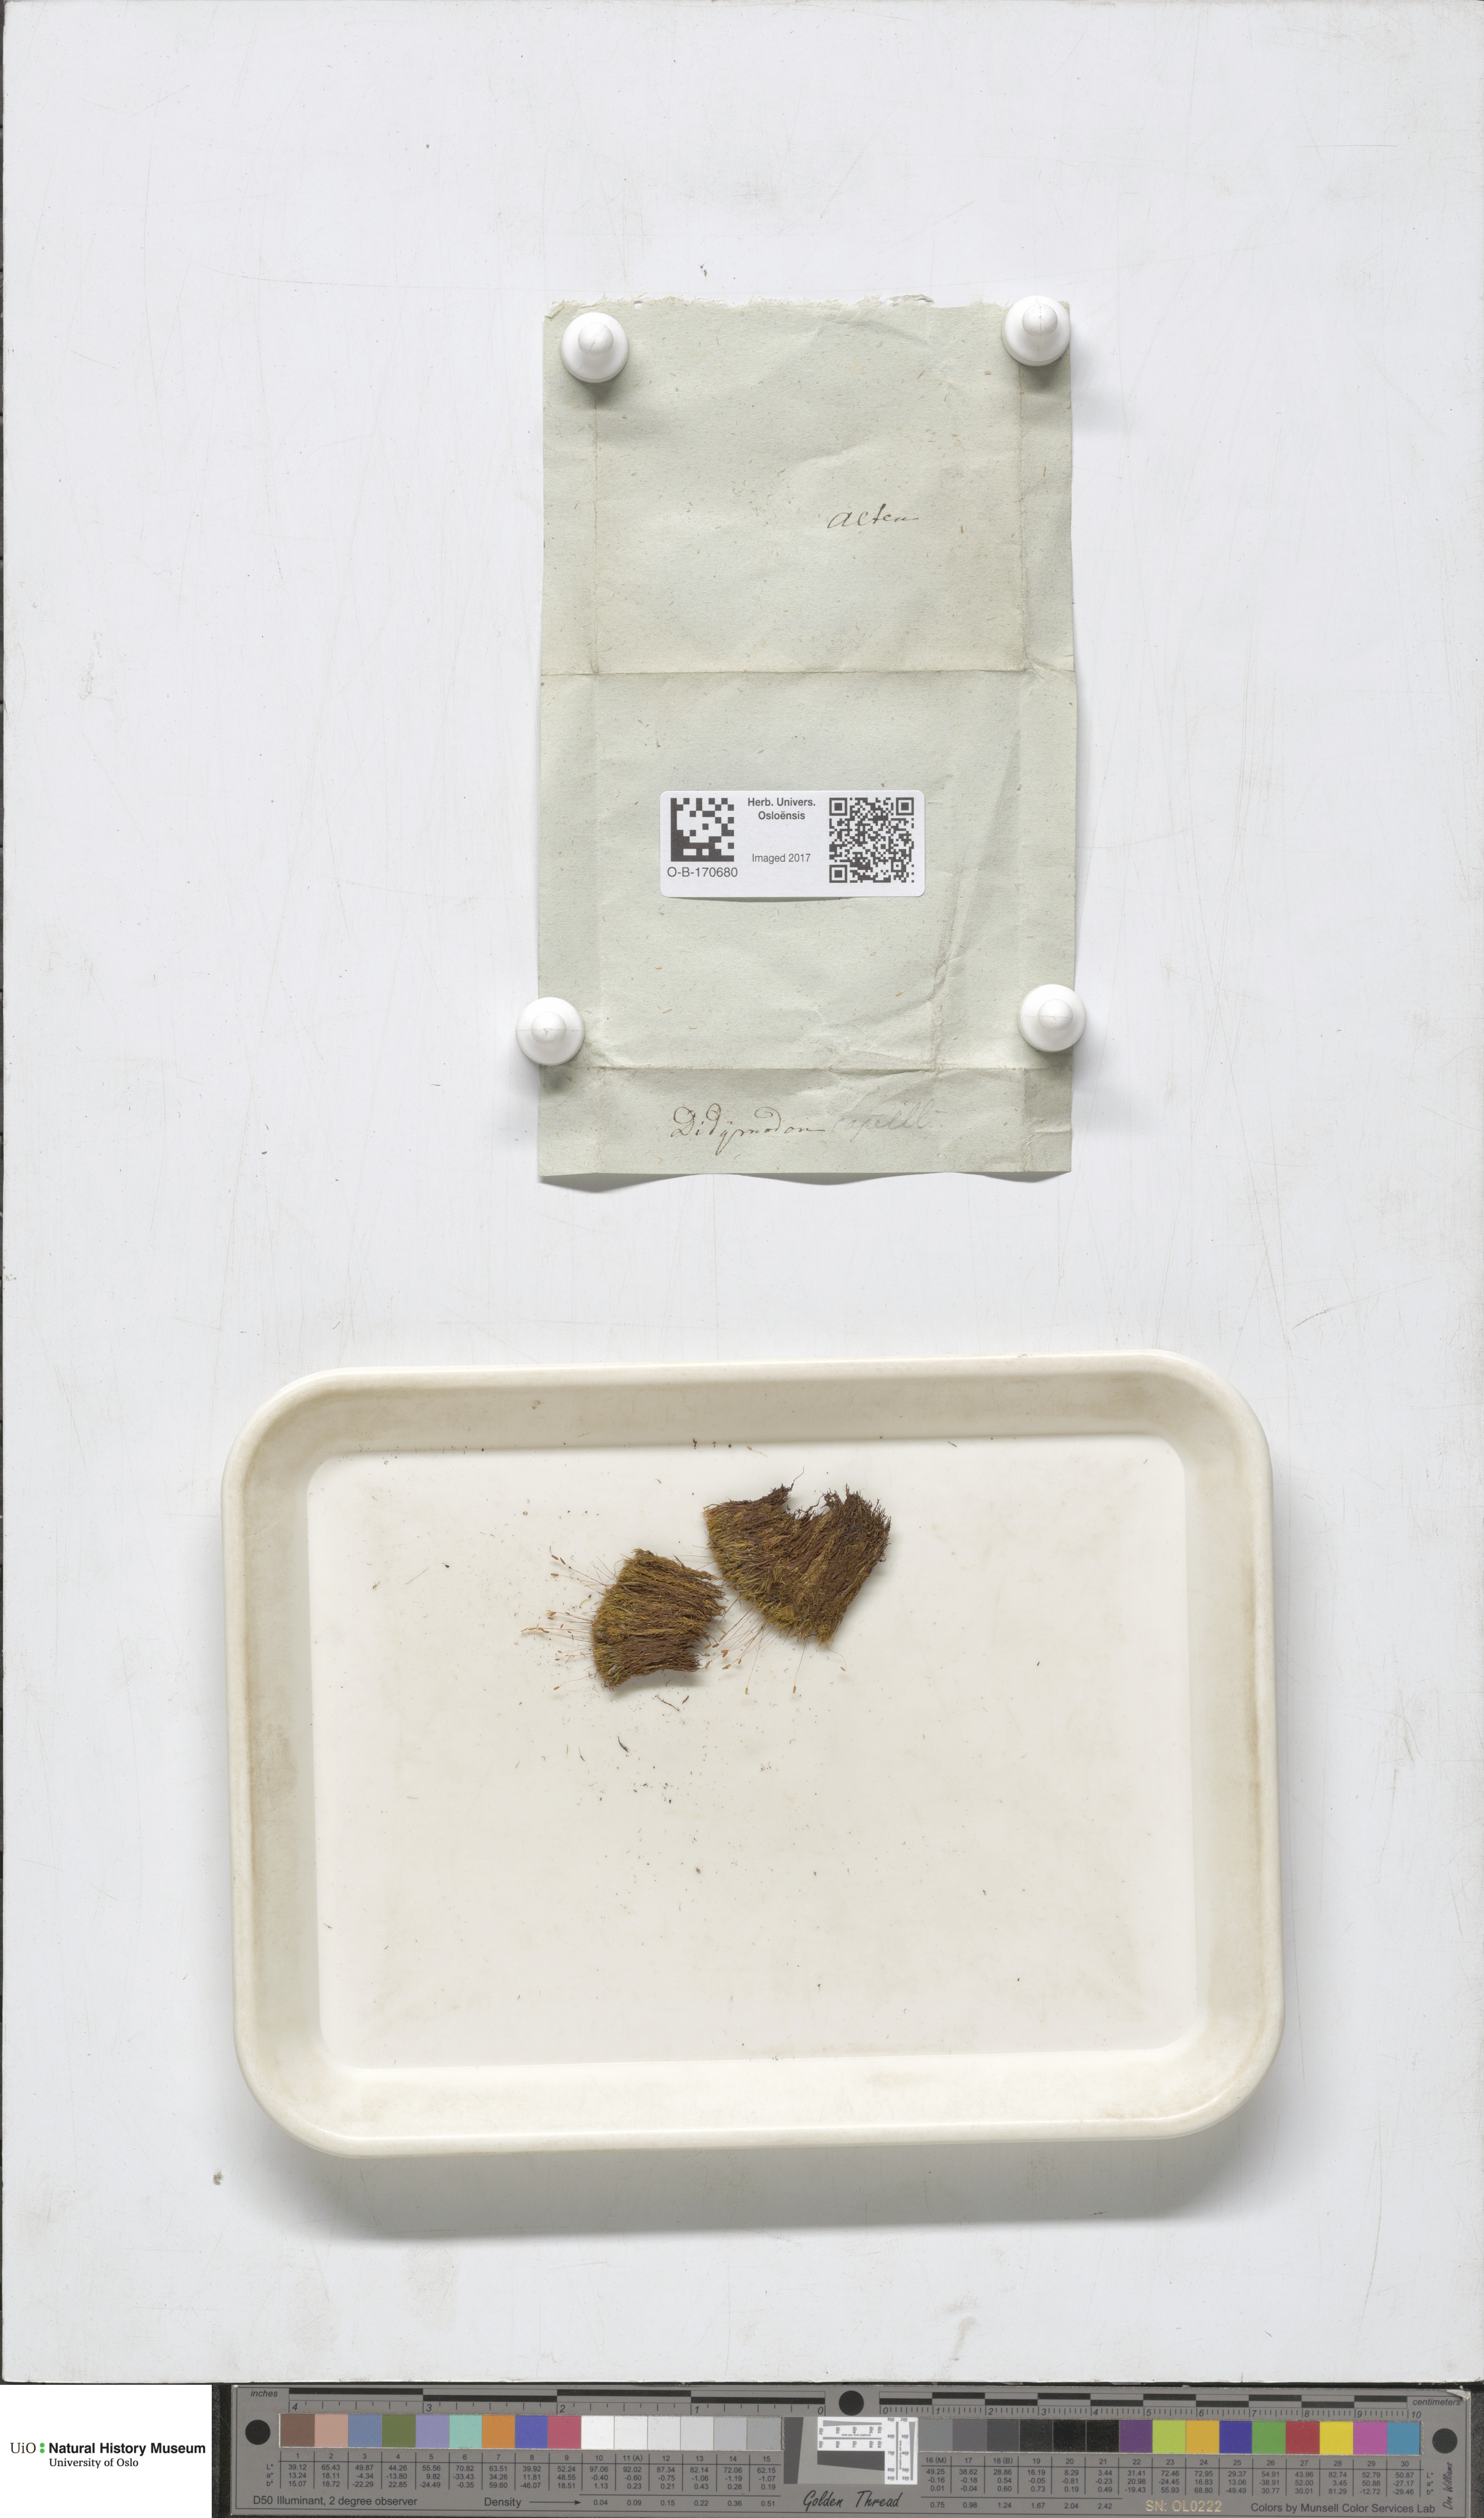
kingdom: Plantae
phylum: Bryophyta
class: Bryopsida
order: Scouleriales
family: Distichiaceae
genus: Distichium
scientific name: Distichium capillaceum
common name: Erect-fruited iris moss
